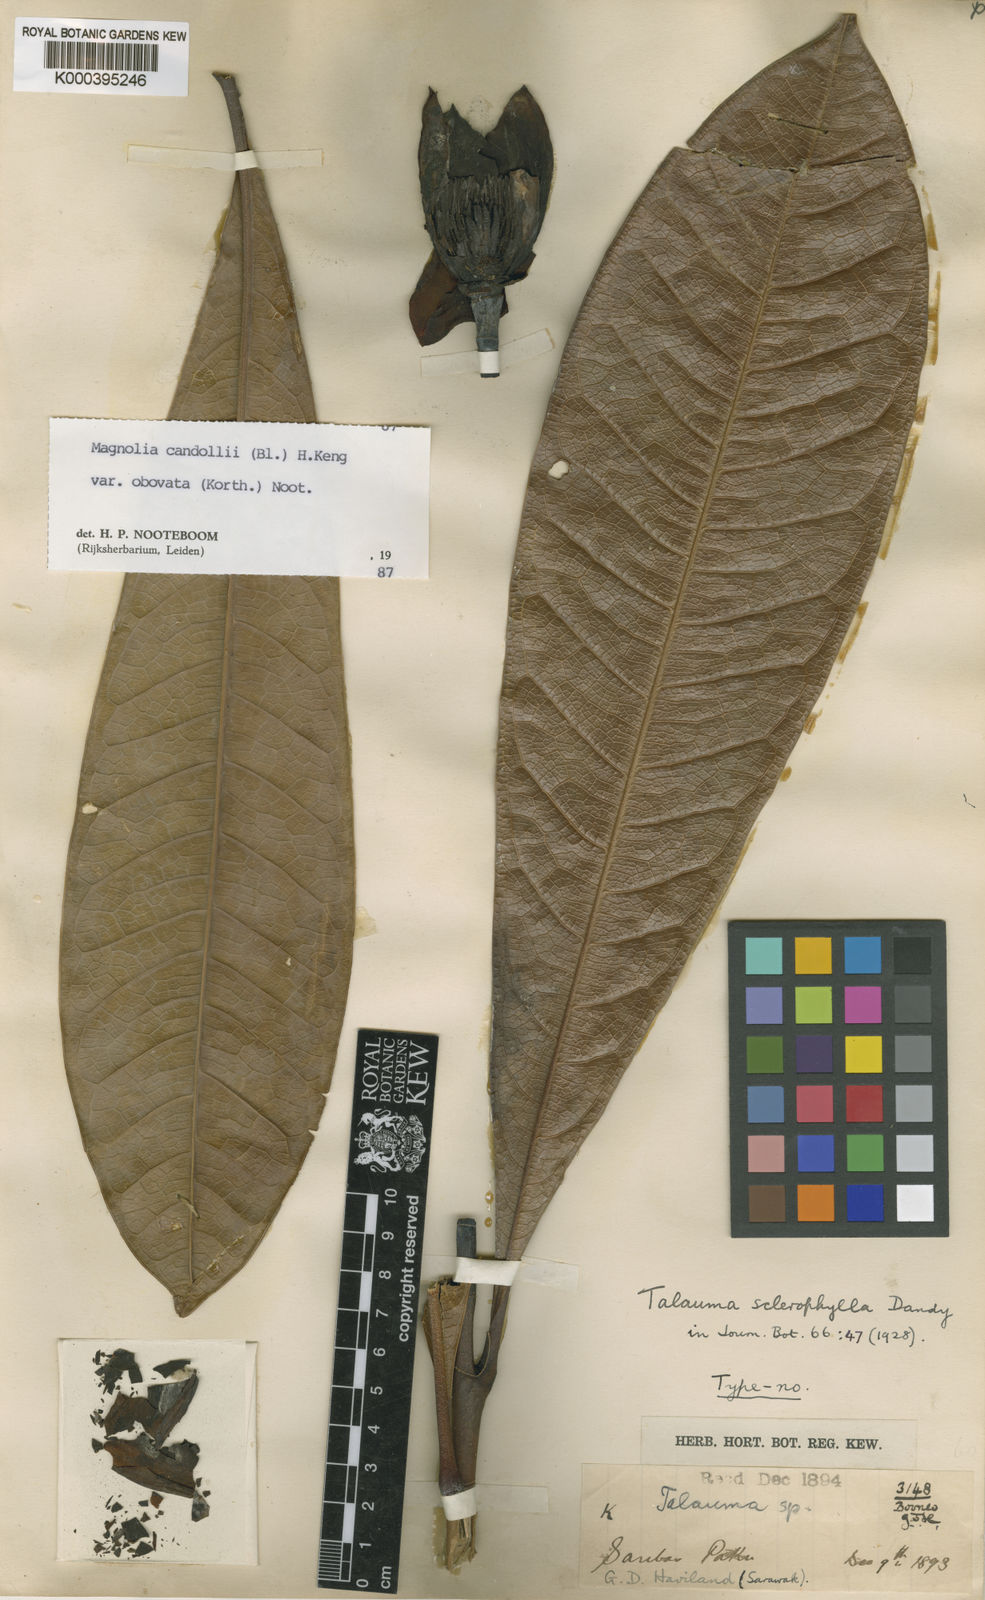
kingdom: Plantae
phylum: Tracheophyta
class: Magnoliopsida
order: Magnoliales
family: Magnoliaceae
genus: Magnolia
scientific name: Magnolia betongensis
